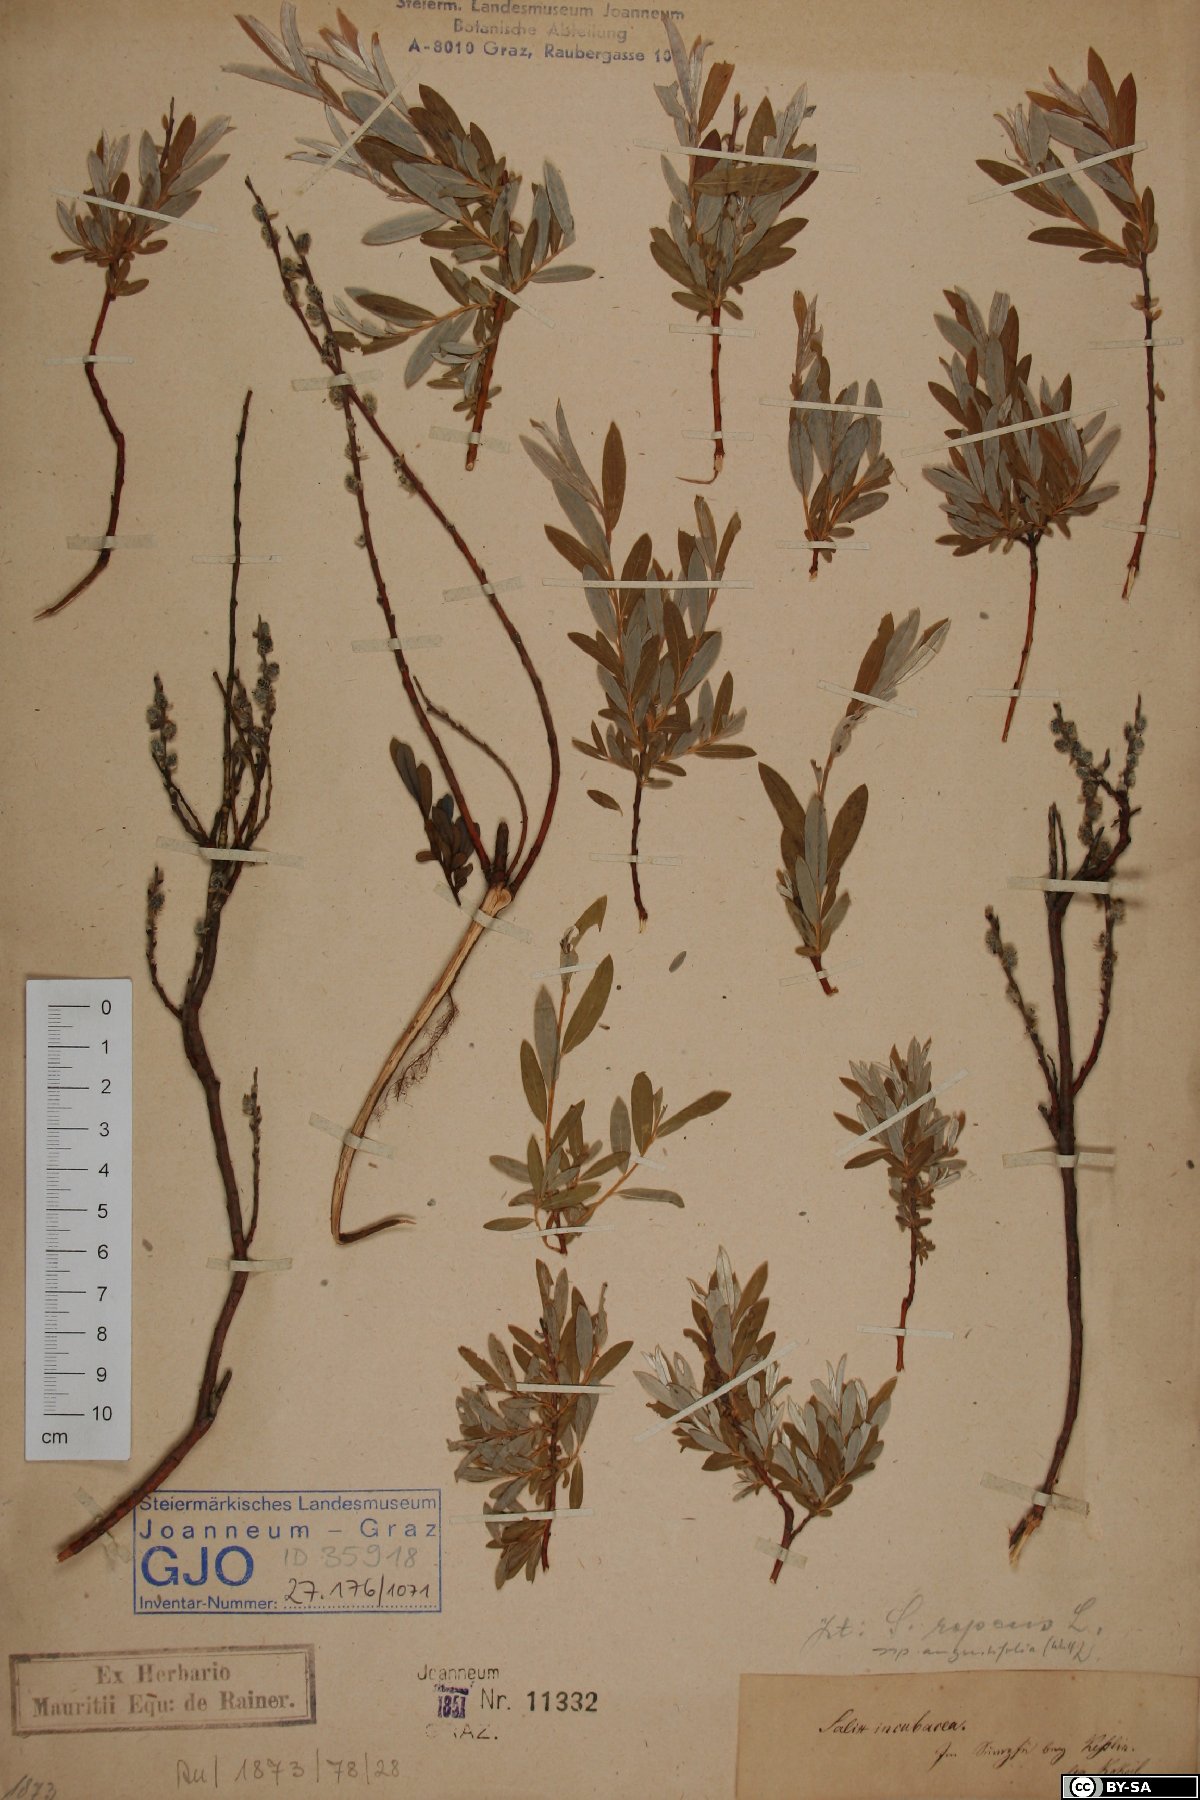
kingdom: Plantae
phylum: Tracheophyta
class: Magnoliopsida
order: Malpighiales
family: Salicaceae
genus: Salix
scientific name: Salix rosmarinifolia
